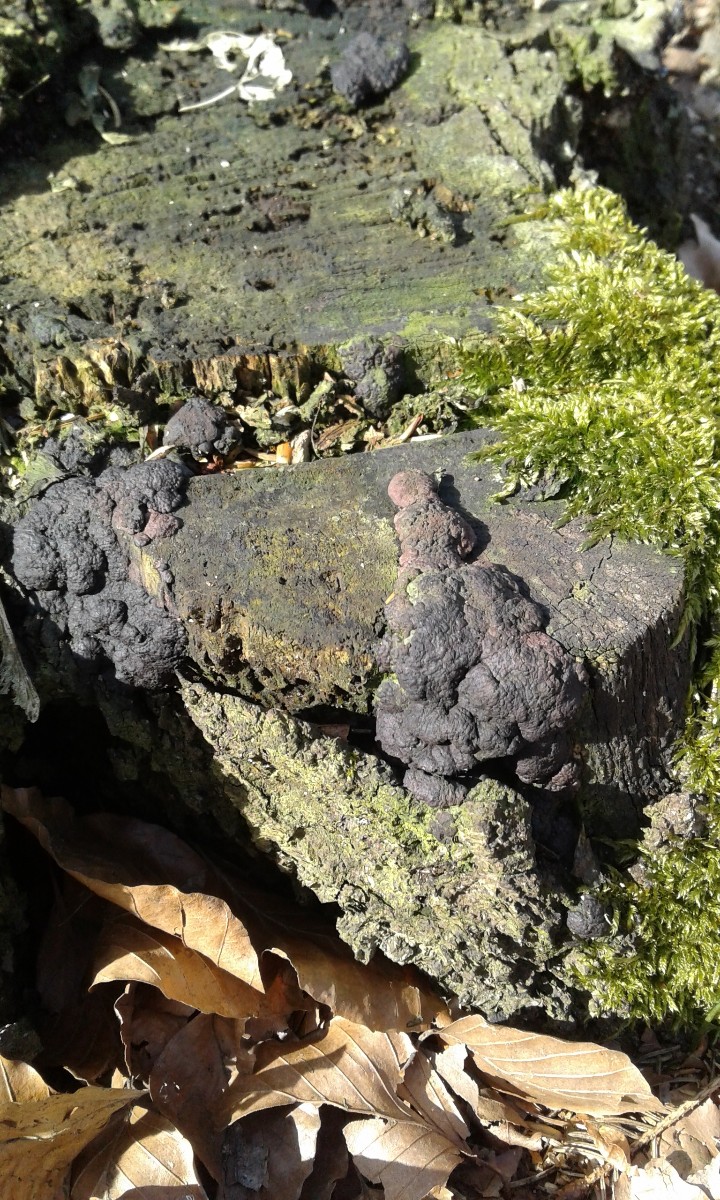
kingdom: Fungi
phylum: Ascomycota
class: Sordariomycetes
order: Xylariales
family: Hypoxylaceae
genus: Jackrogersella
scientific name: Jackrogersella multiformis
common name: foranderlig kulbær
